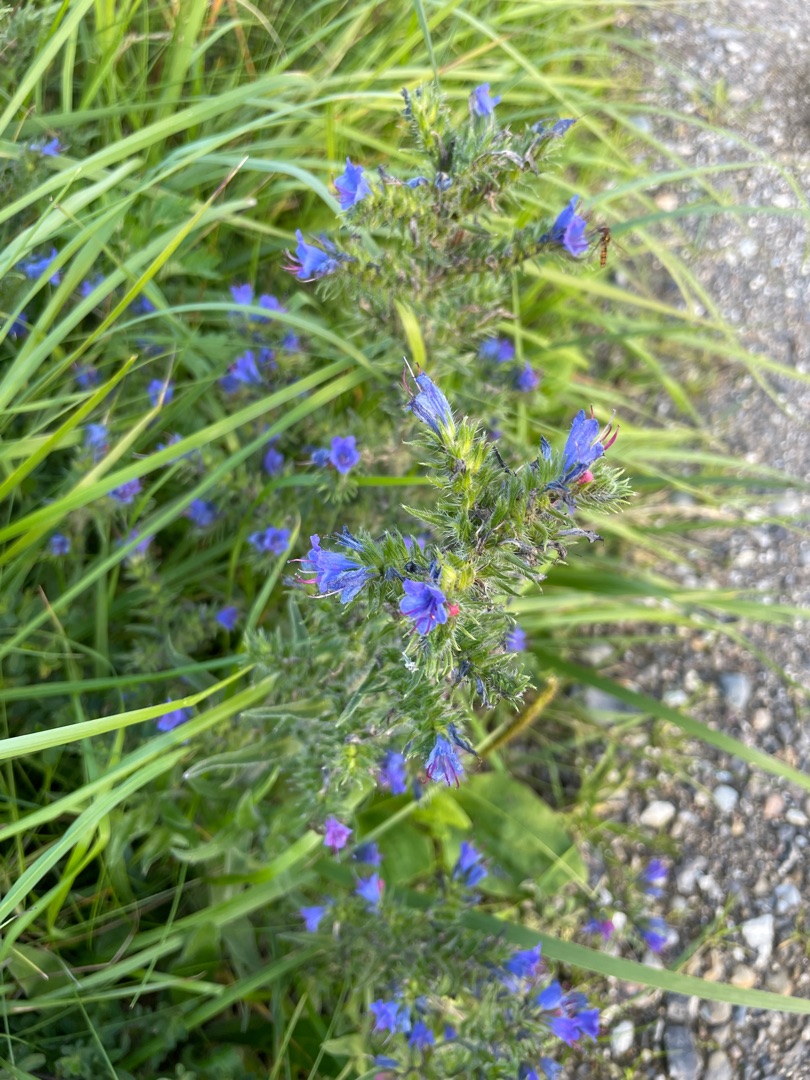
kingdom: Plantae
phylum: Tracheophyta
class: Magnoliopsida
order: Boraginales
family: Boraginaceae
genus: Echium
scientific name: Echium vulgare
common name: Slangehoved
